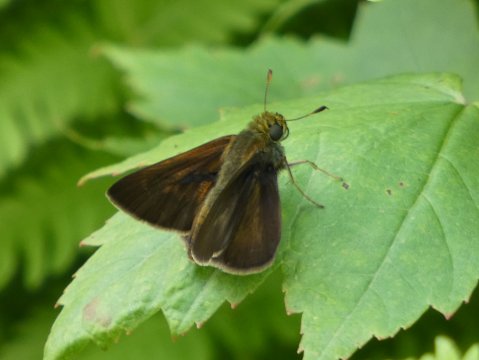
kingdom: Animalia
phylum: Arthropoda
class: Insecta
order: Lepidoptera
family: Hesperiidae
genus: Euphyes
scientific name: Euphyes vestris
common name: Dun Skipper
